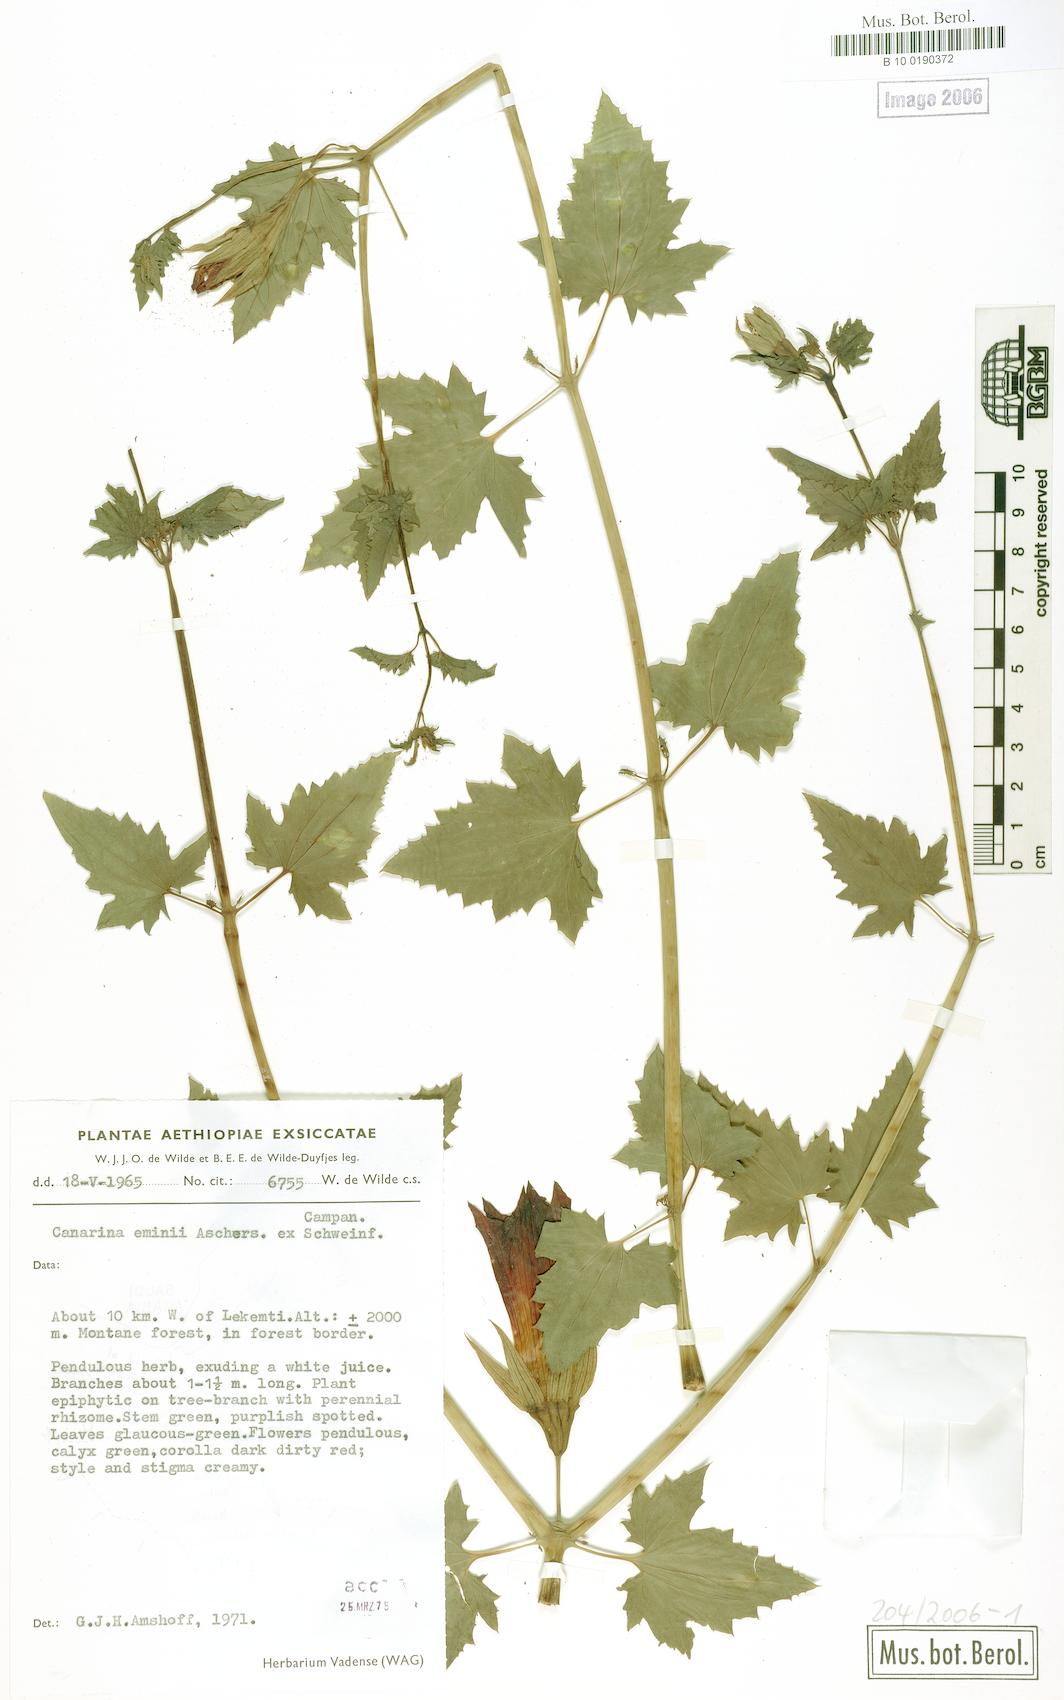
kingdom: Plantae
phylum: Tracheophyta
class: Magnoliopsida
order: Asterales
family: Campanulaceae
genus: Canarina
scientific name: Canarina eminii
